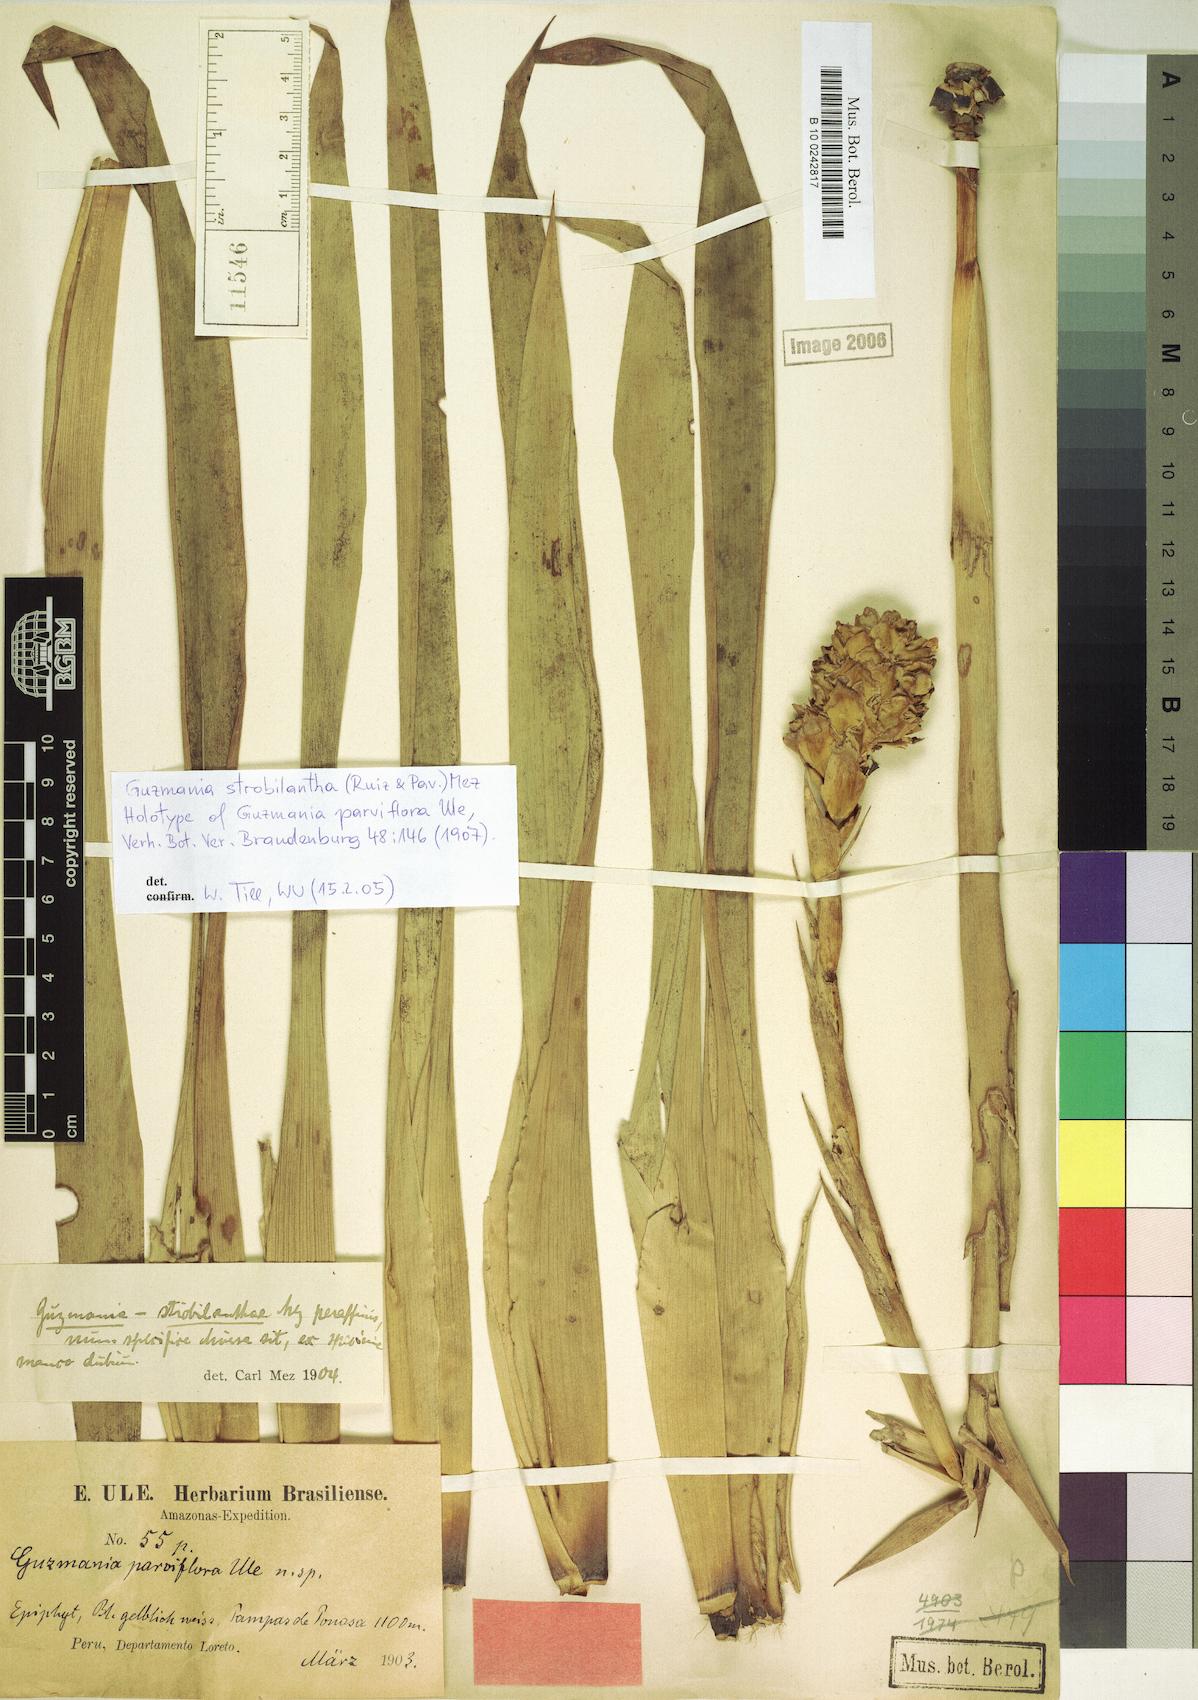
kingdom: Plantae
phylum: Tracheophyta
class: Liliopsida
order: Poales
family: Bromeliaceae
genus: Guzmania
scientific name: Guzmania strobilantha
